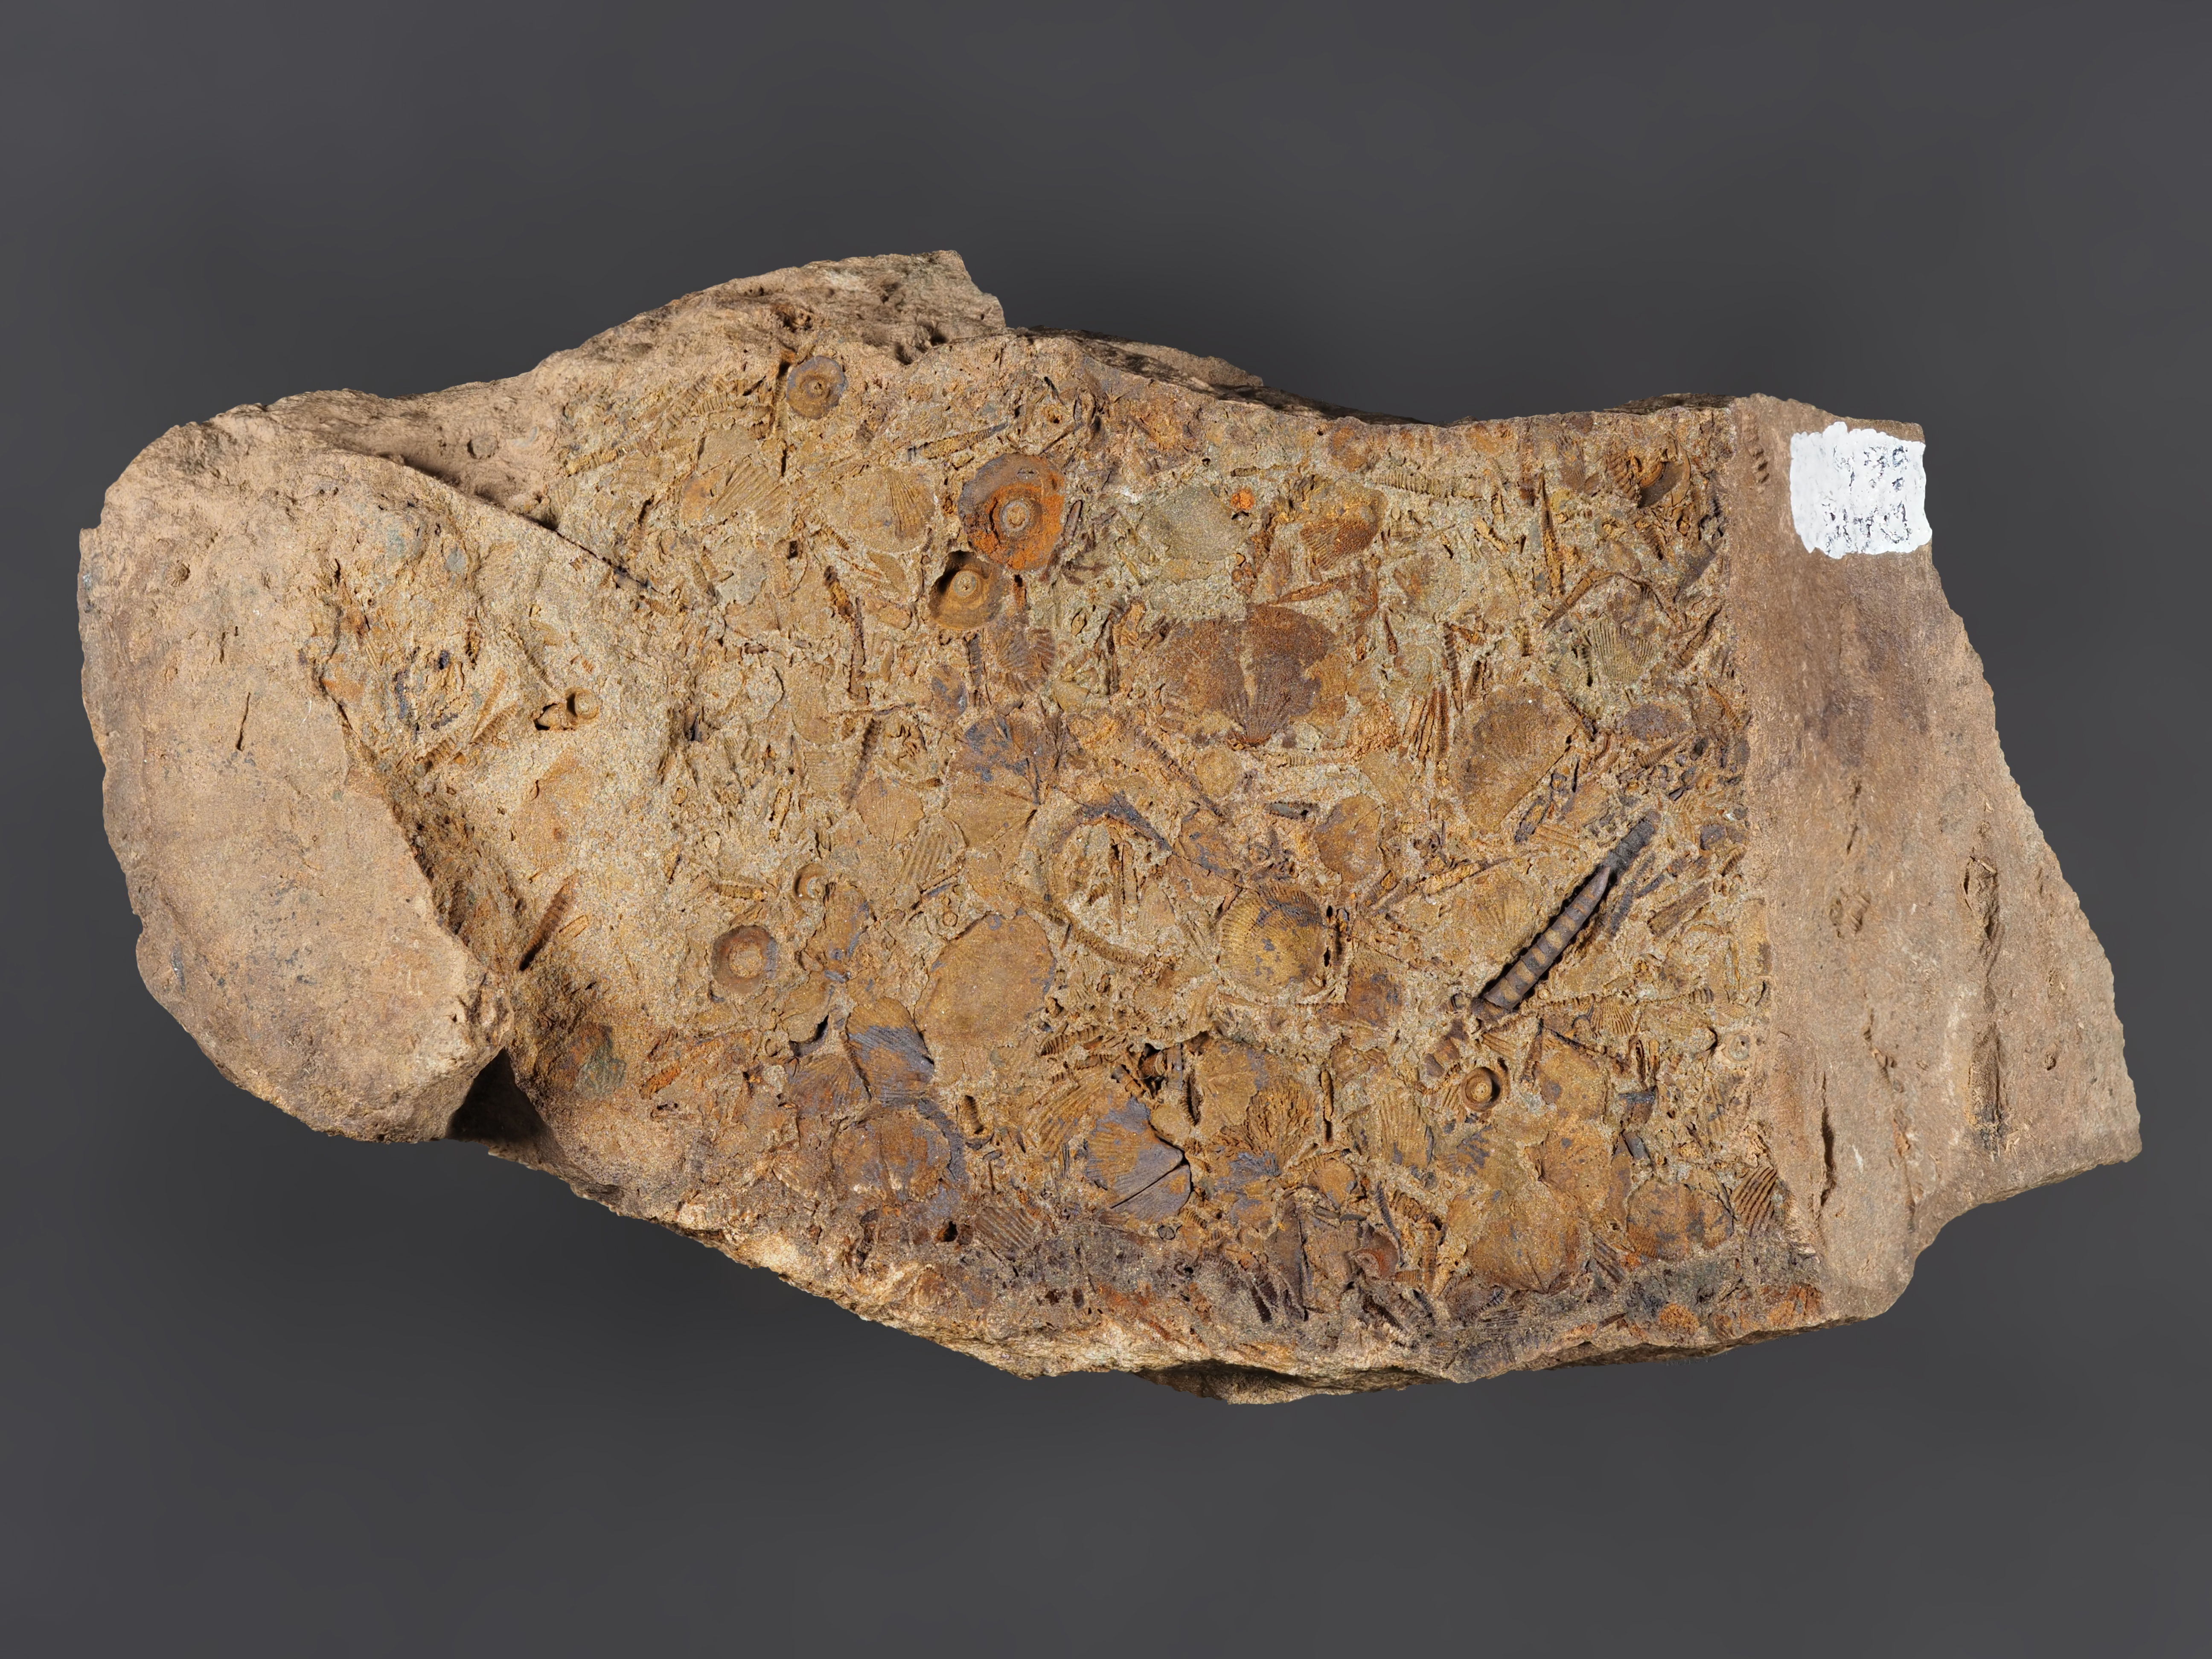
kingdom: Animalia
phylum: Brachiopoda
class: Rhynchonellata
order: Terebratulida
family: Mutationellidae
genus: Mutationella
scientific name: Mutationella
